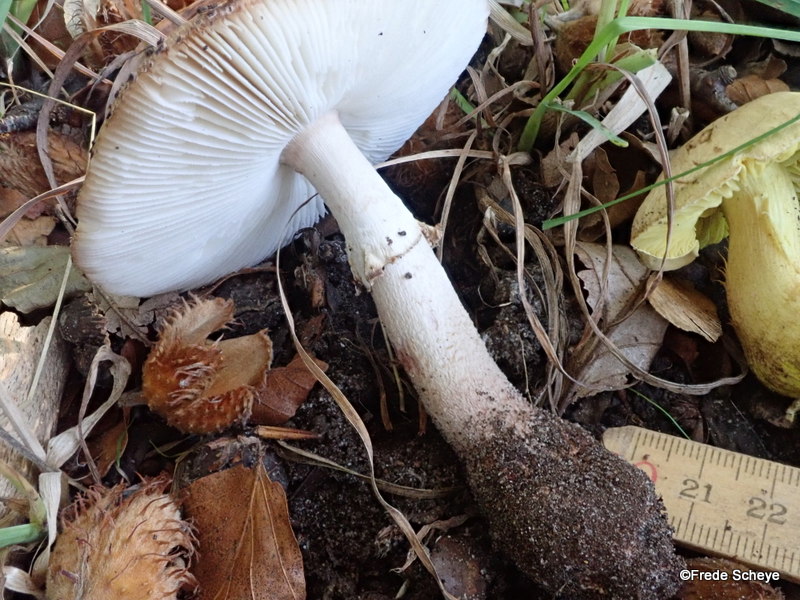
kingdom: Fungi
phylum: Basidiomycota
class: Agaricomycetes
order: Agaricales
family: Amanitaceae
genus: Amanita
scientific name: Amanita rubescens
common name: rødmende fluesvamp
